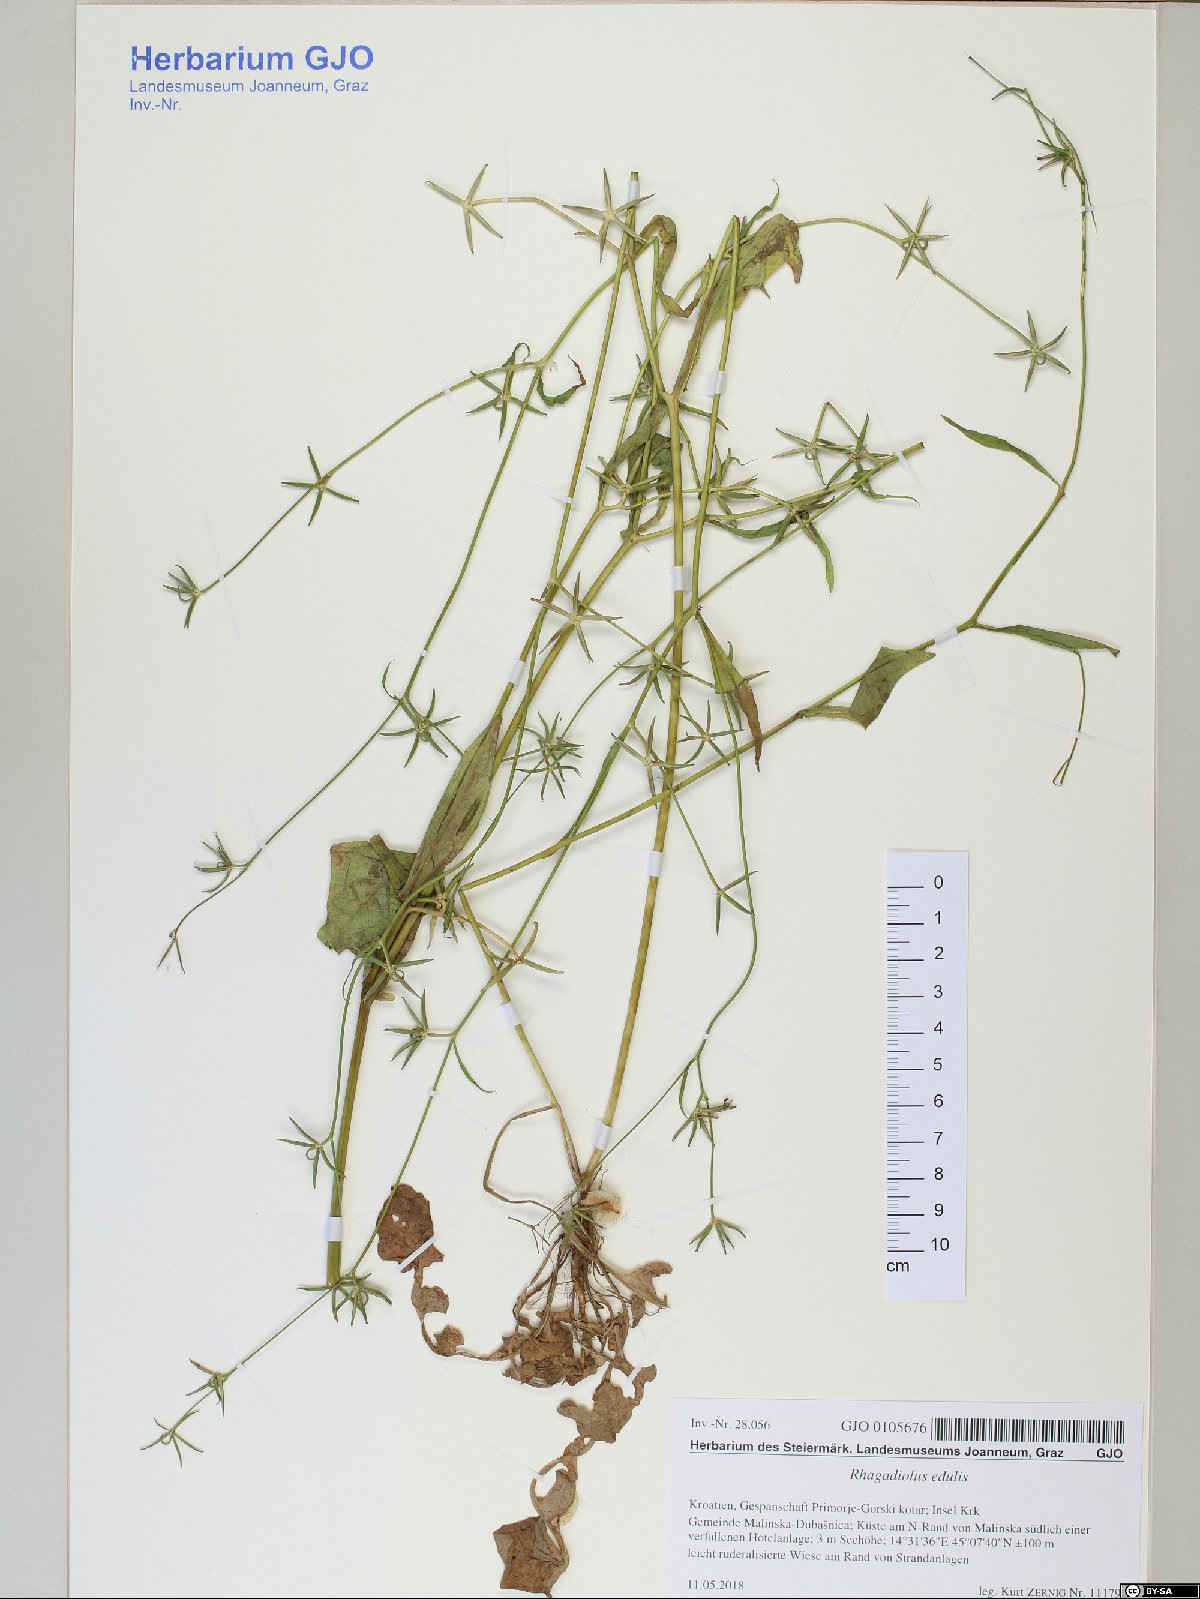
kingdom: Plantae
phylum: Tracheophyta
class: Magnoliopsida
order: Asterales
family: Asteraceae
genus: Rhagadiolus
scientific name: Rhagadiolus edulis
